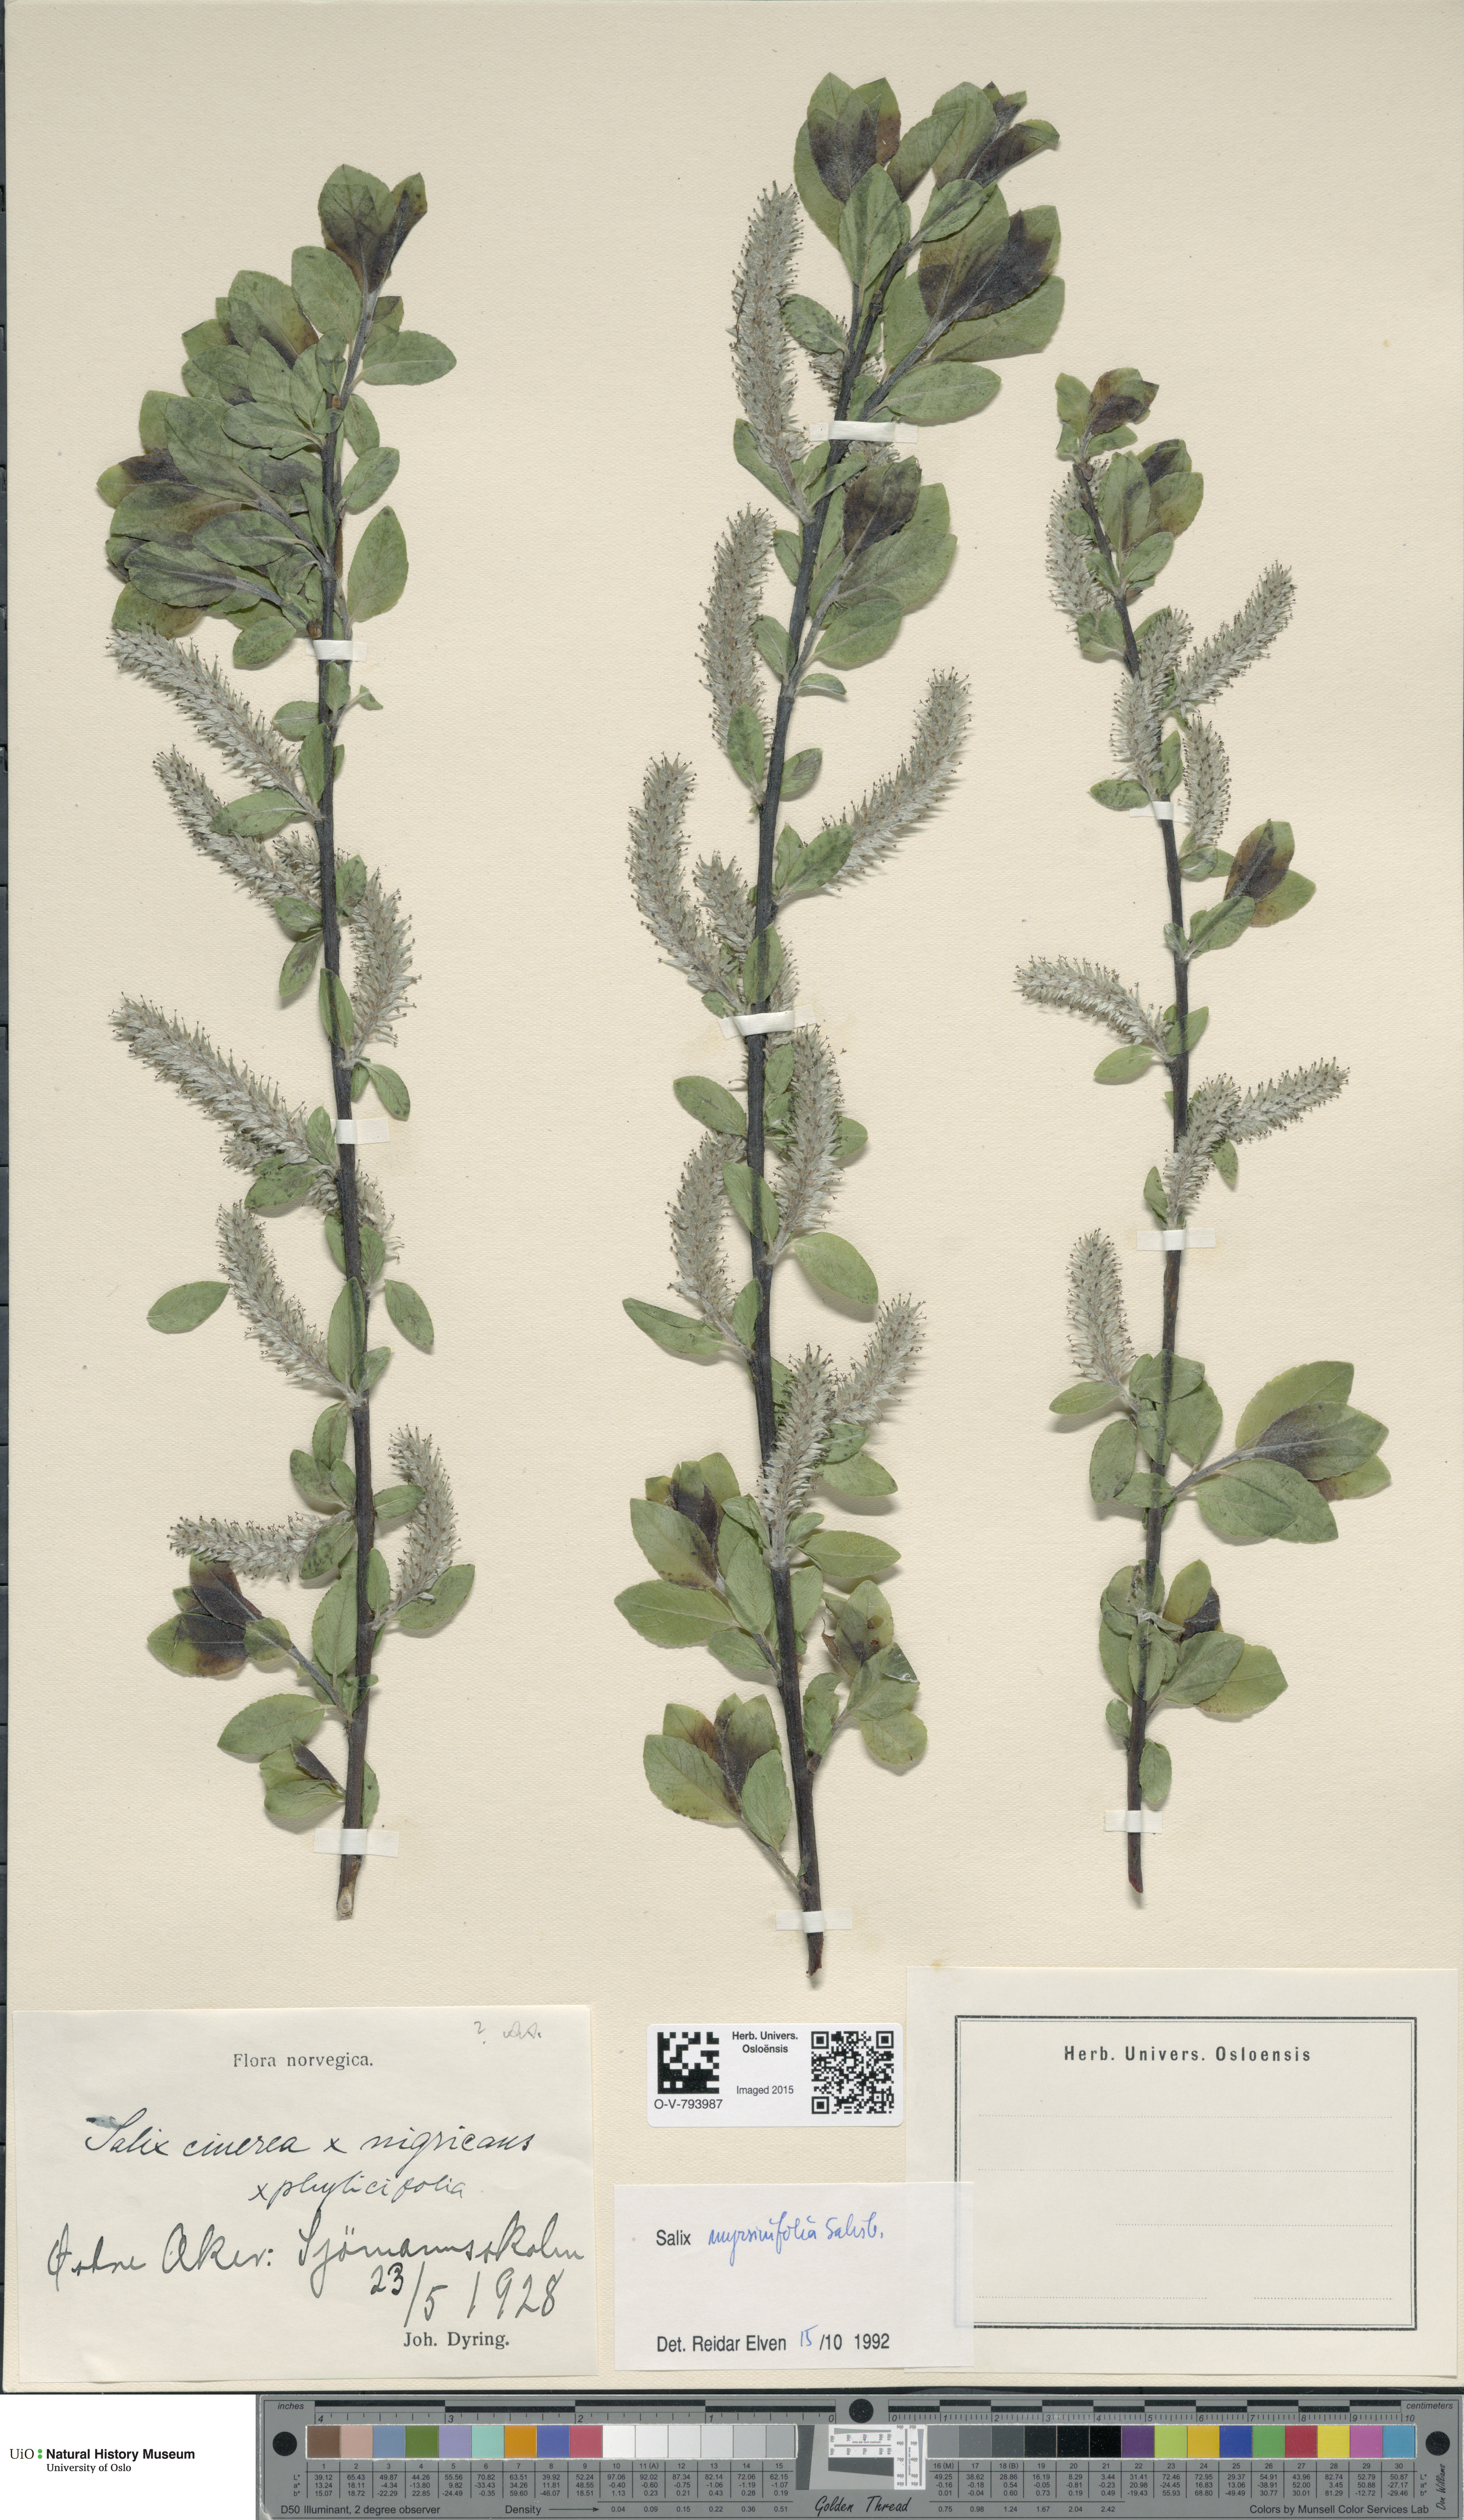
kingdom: Plantae
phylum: Tracheophyta
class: Magnoliopsida
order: Malpighiales
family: Salicaceae
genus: Salix
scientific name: Salix myrsinifolia
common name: Dark-leaved willow
